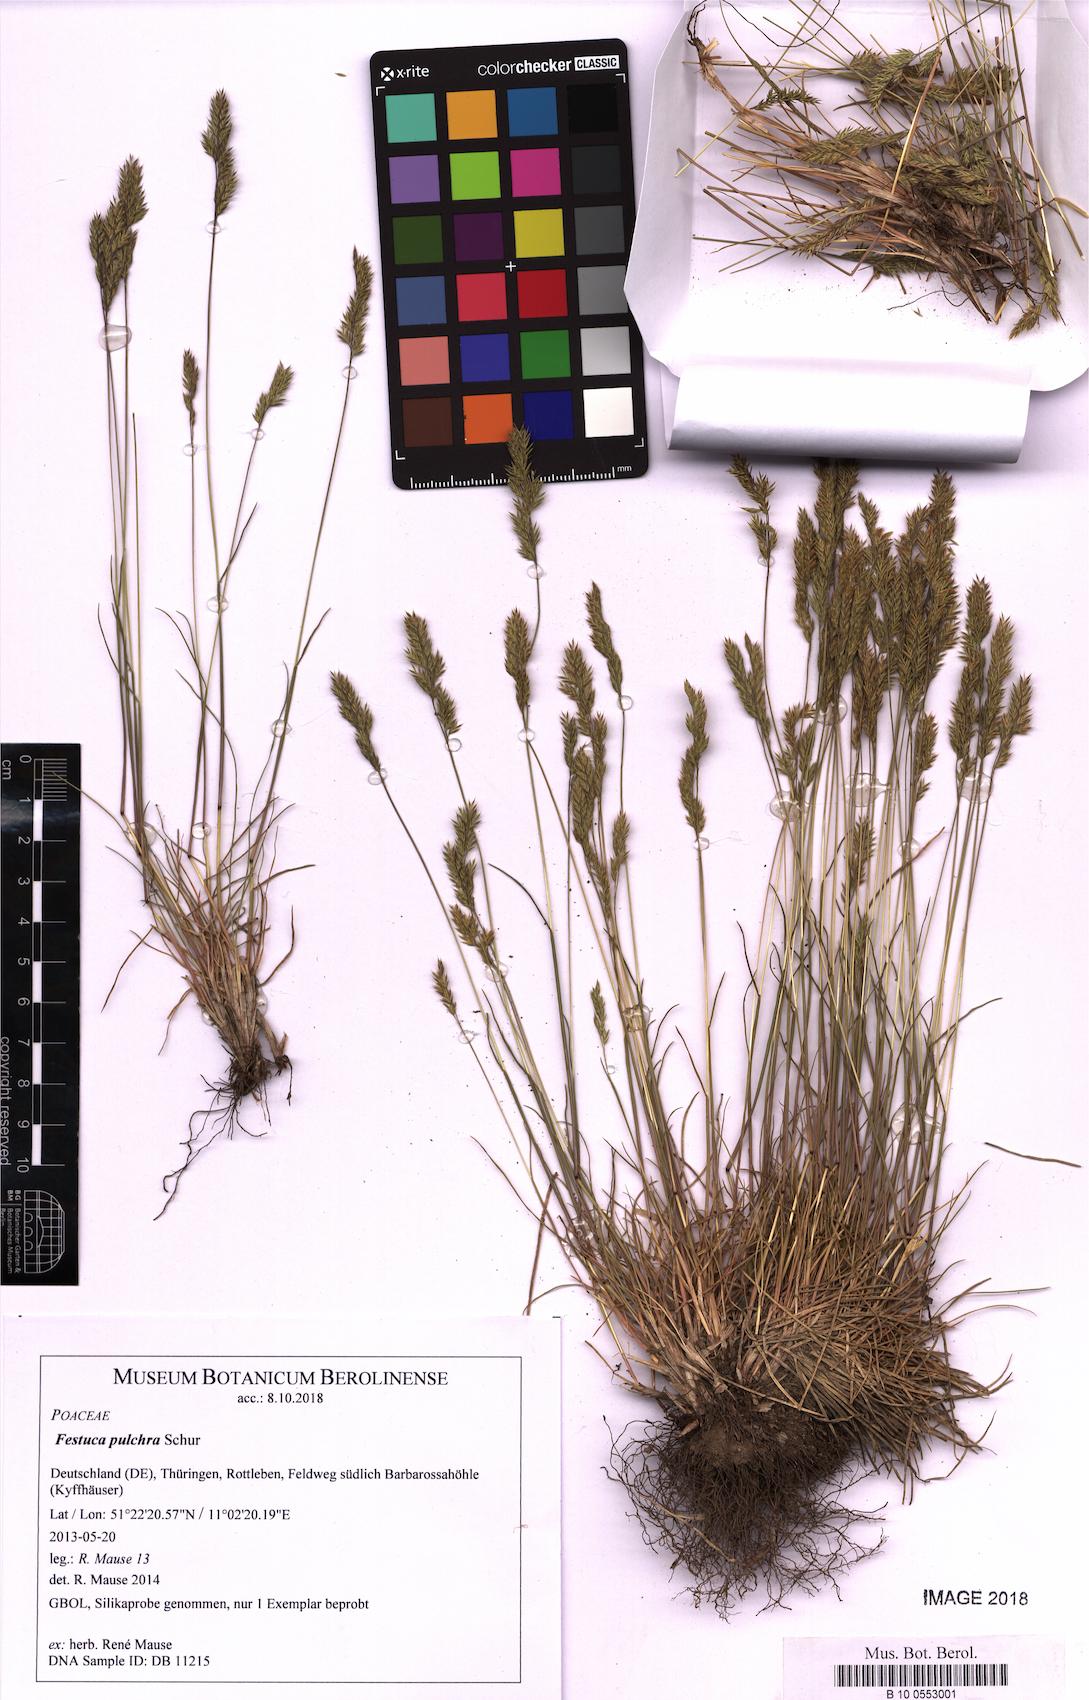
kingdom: Plantae
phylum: Tracheophyta
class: Liliopsida
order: Poales
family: Poaceae
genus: Festuca
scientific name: Festuca pulchra
